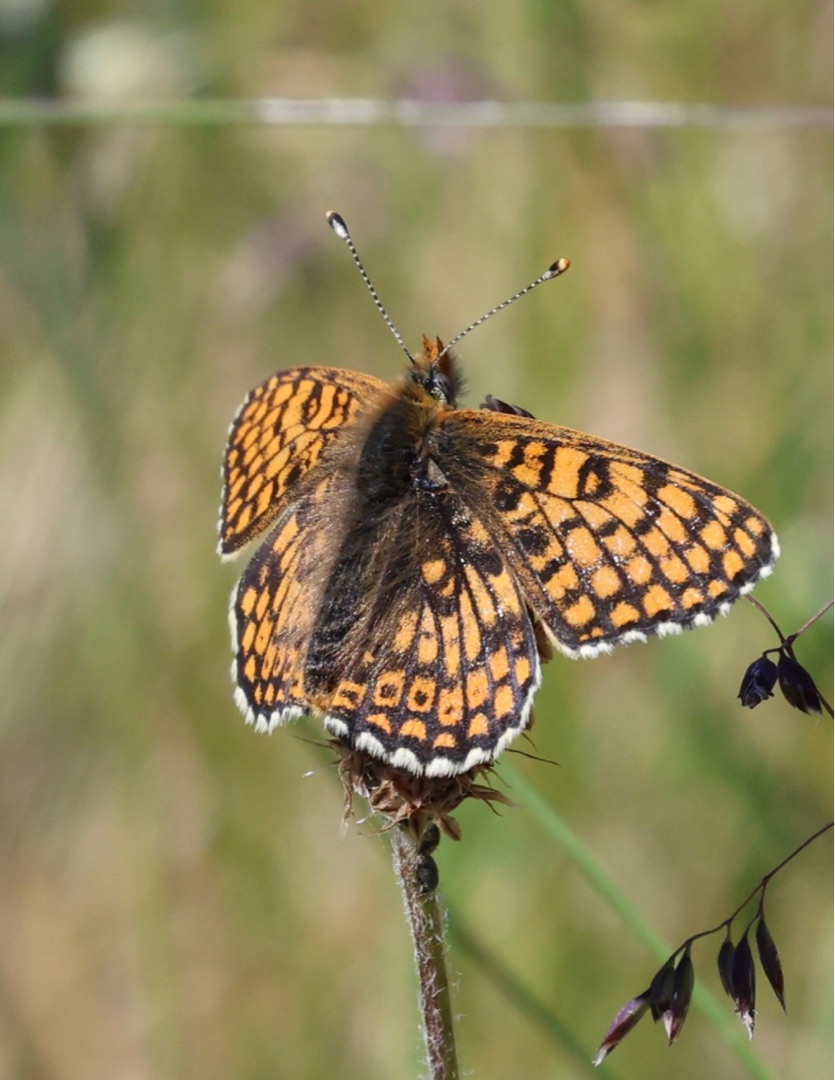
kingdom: Animalia
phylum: Arthropoda
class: Insecta
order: Lepidoptera
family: Nymphalidae
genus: Melitaea
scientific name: Melitaea cinxia
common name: Okkergul pletvinge
